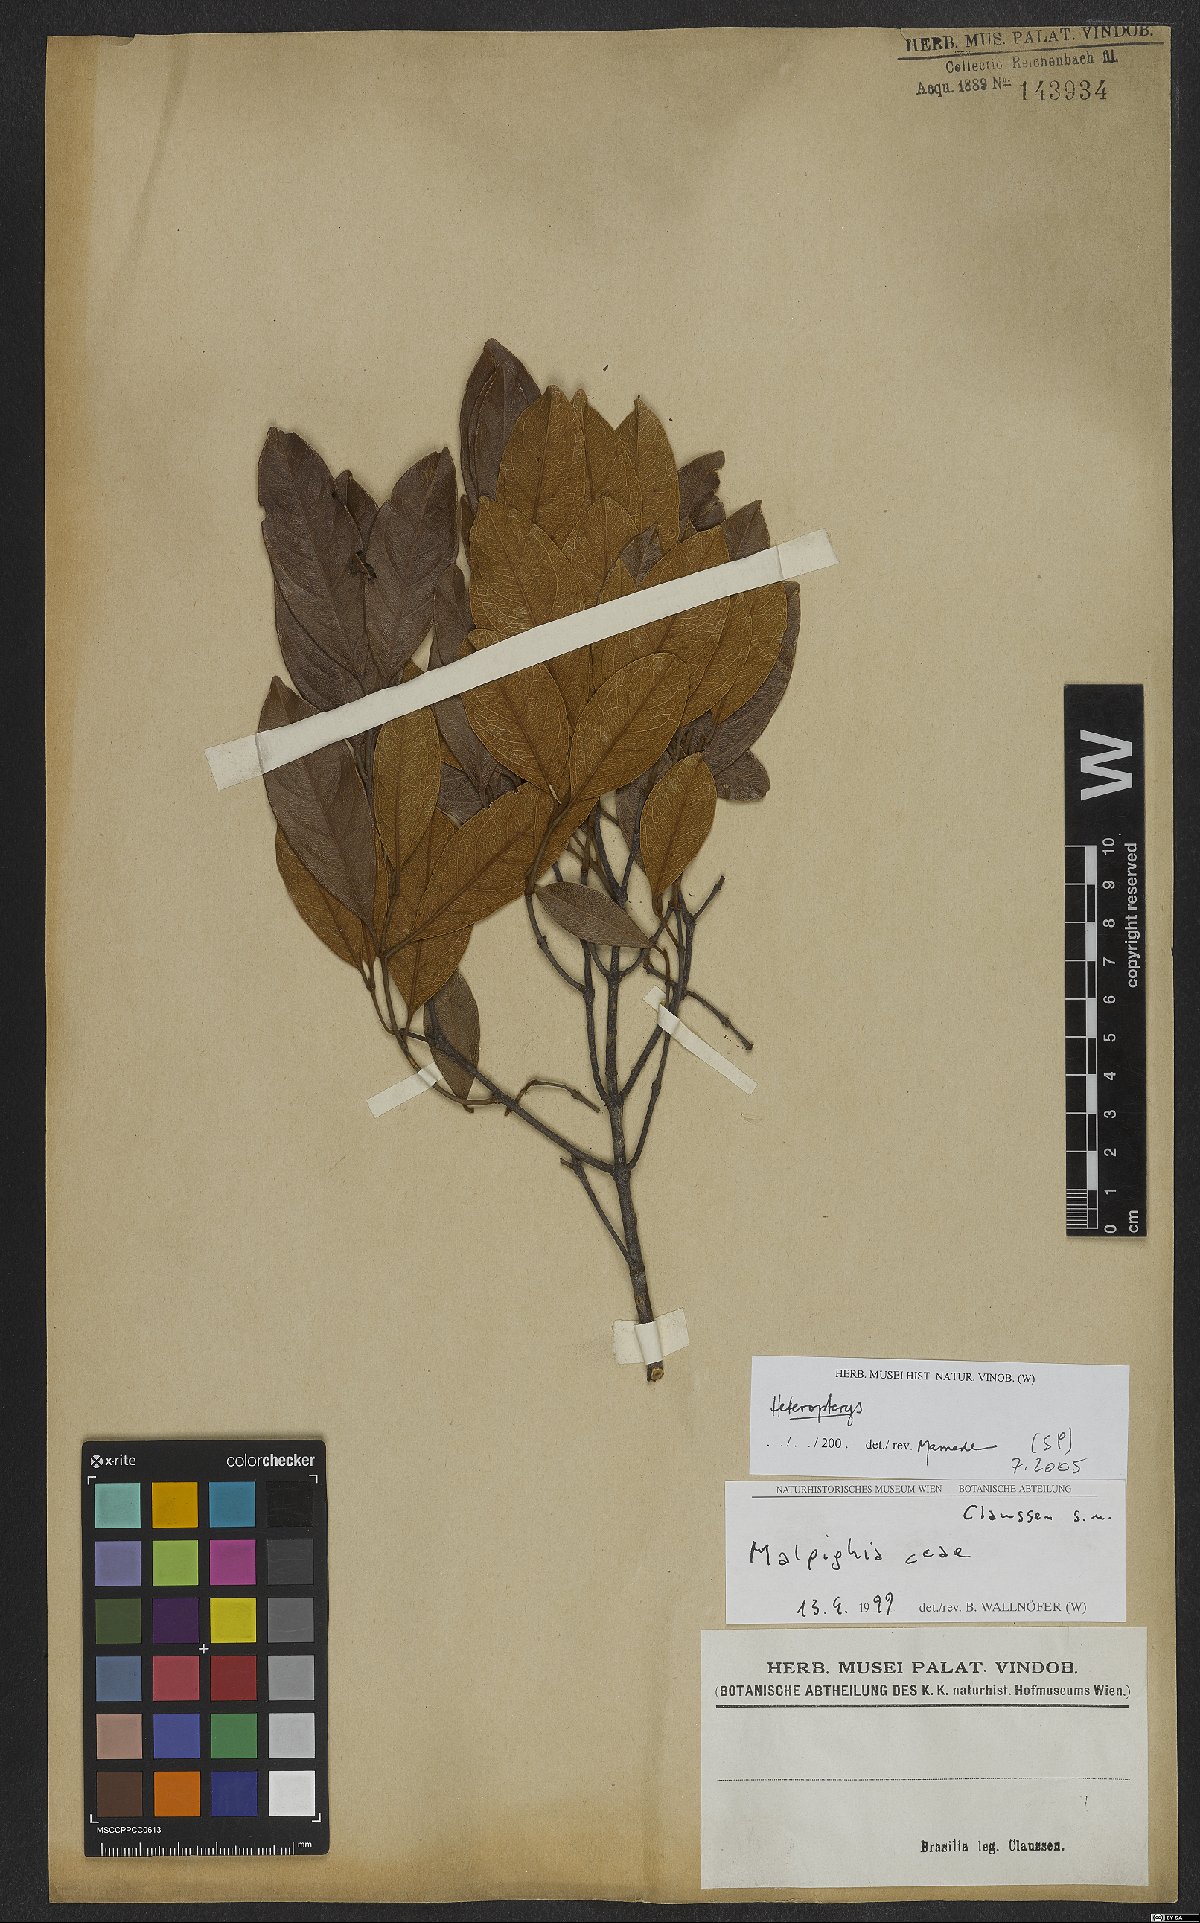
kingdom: Plantae
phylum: Tracheophyta
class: Magnoliopsida
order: Malpighiales
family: Malpighiaceae
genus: Heteropterys
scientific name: Heteropterys
